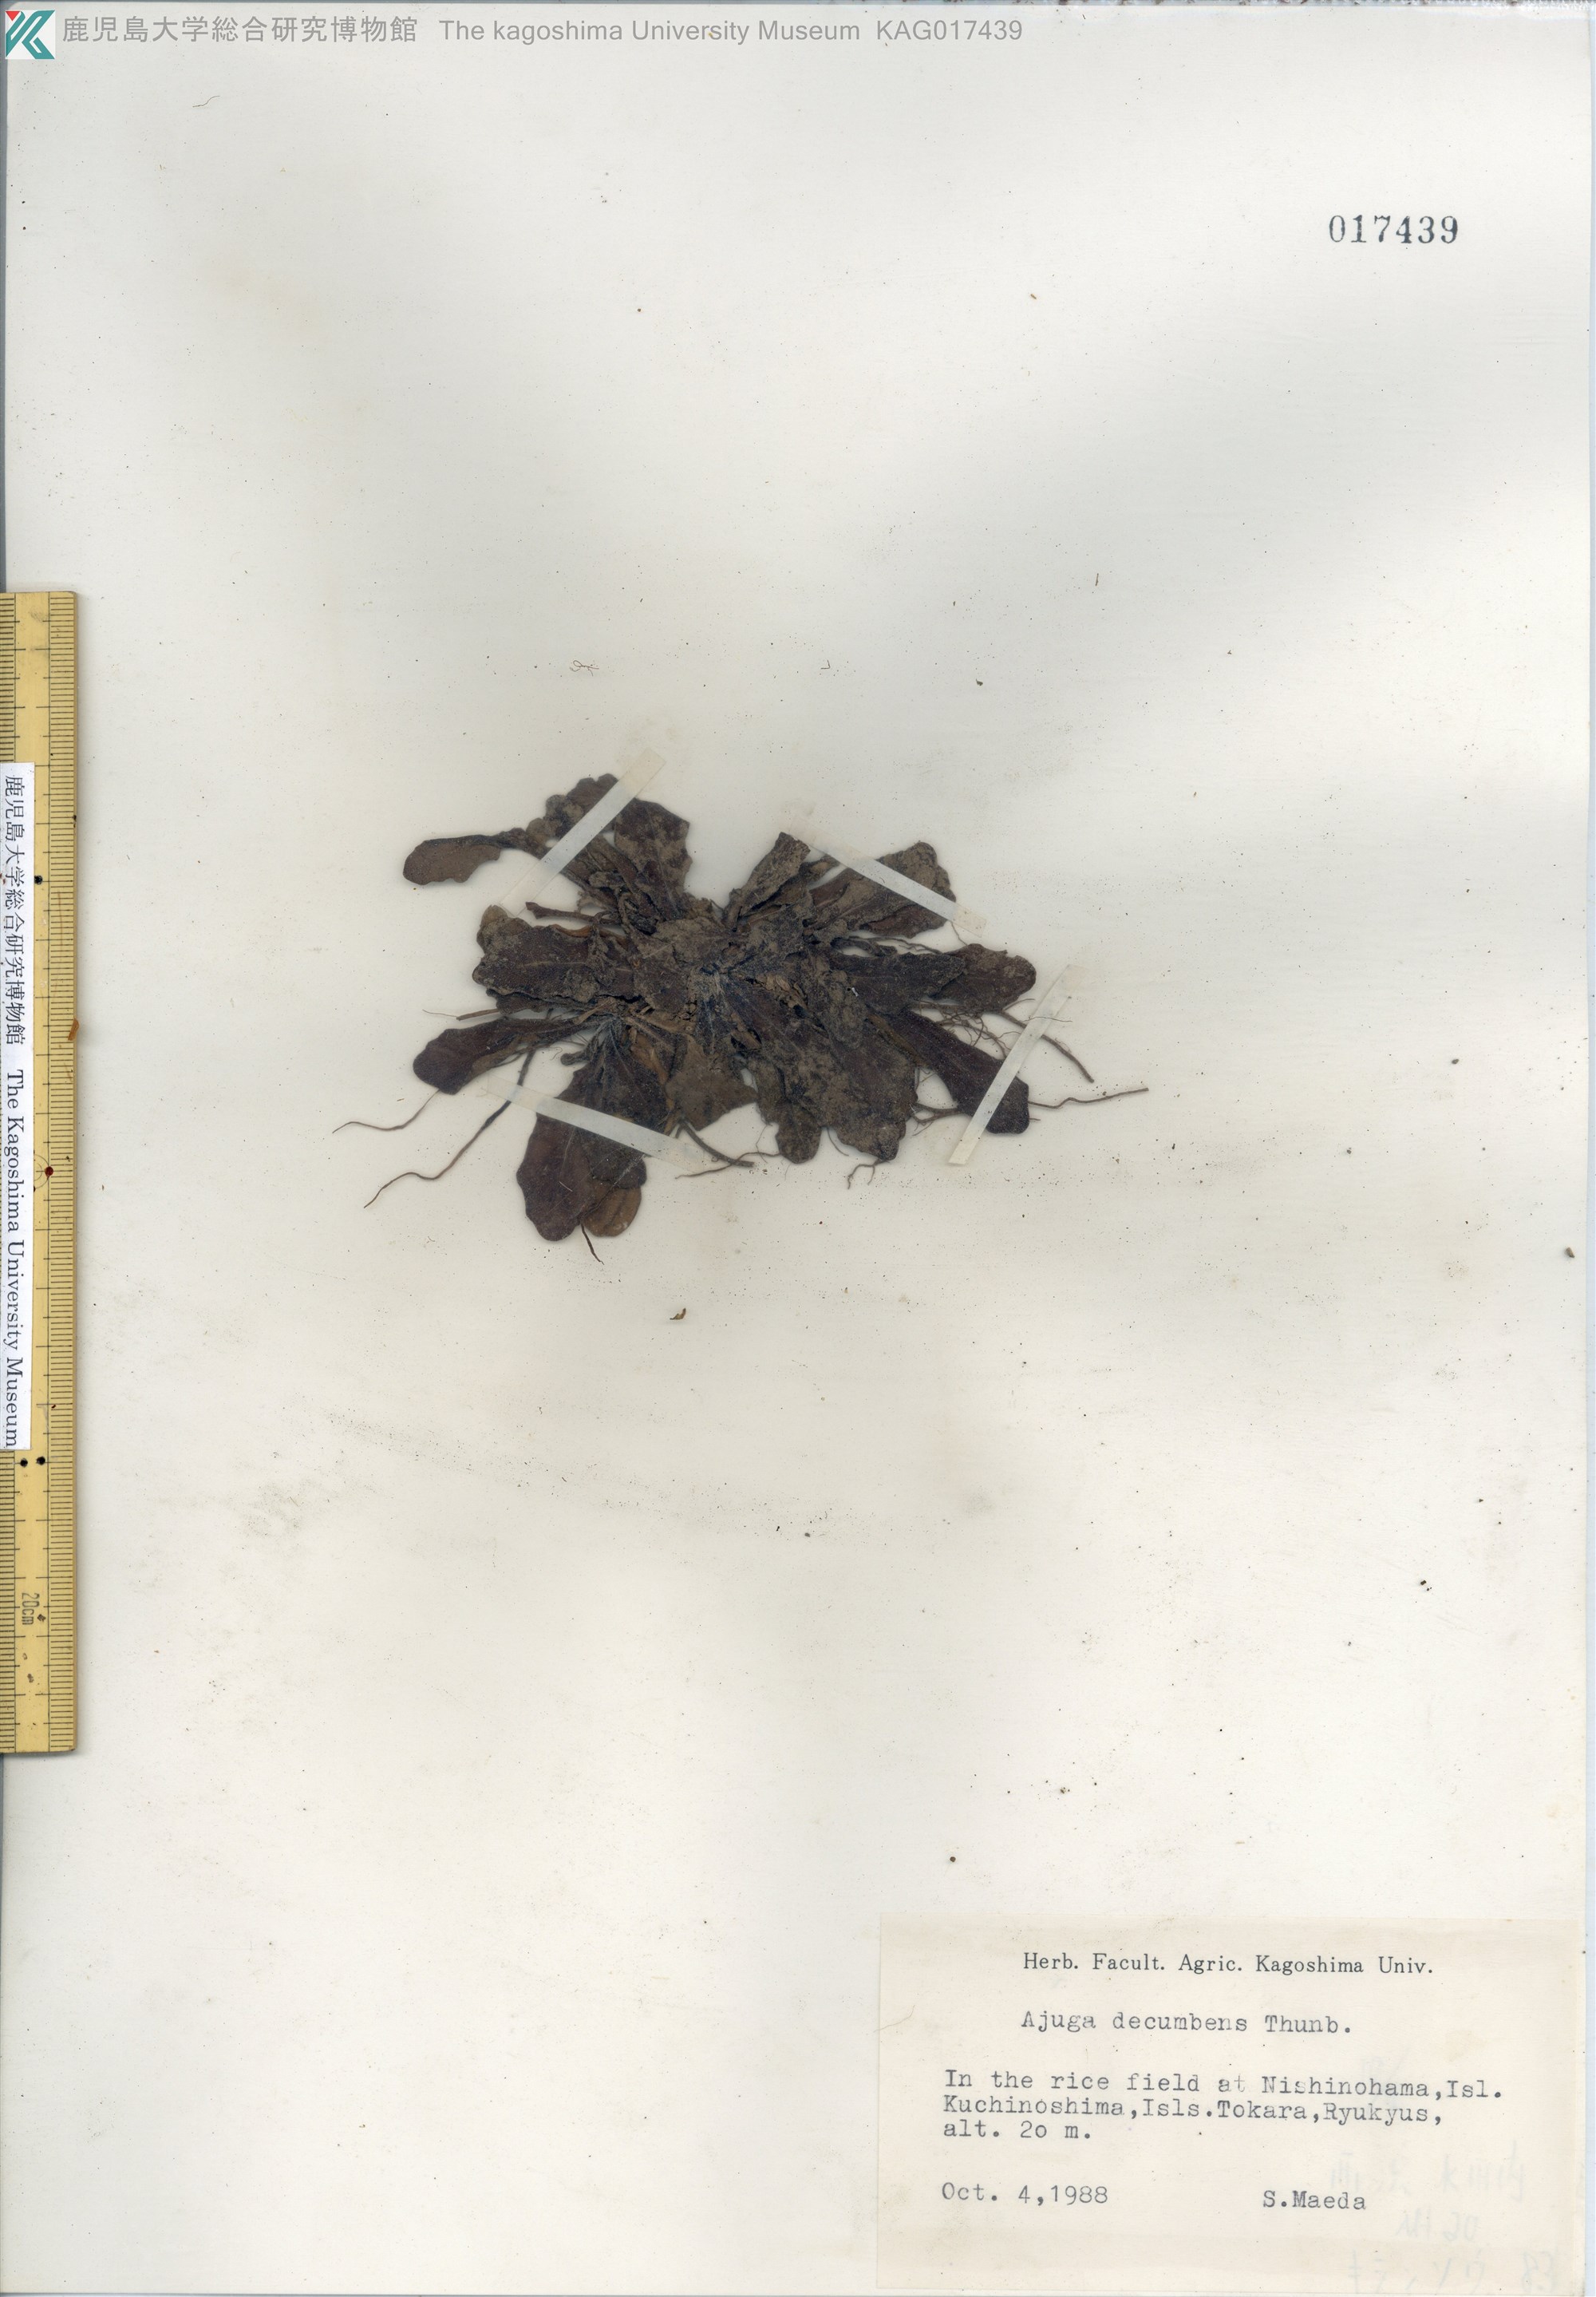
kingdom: Plantae
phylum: Tracheophyta
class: Magnoliopsida
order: Lamiales
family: Lamiaceae
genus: Ajuga
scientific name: Ajuga decumbens
